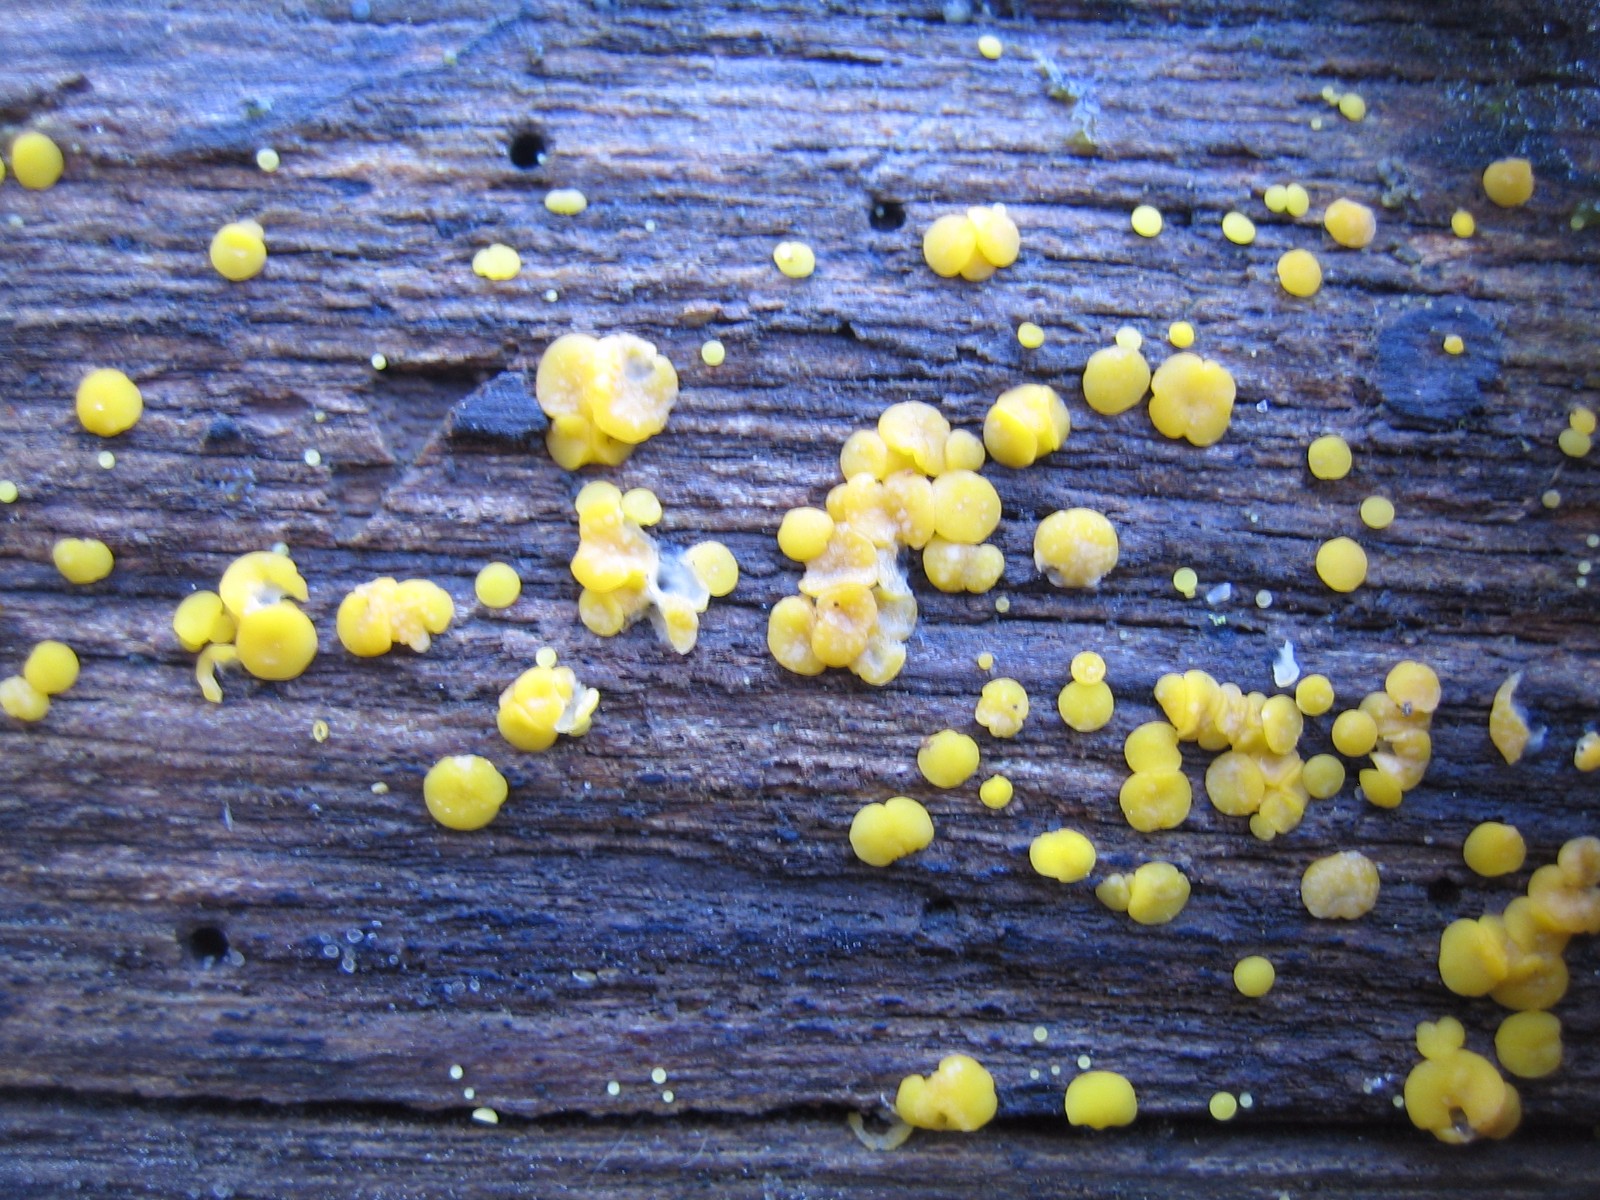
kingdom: Fungi
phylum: Ascomycota
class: Leotiomycetes
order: Helotiales
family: Pezizellaceae
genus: Calycina
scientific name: Calycina citrina
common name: almindelig gulskive
